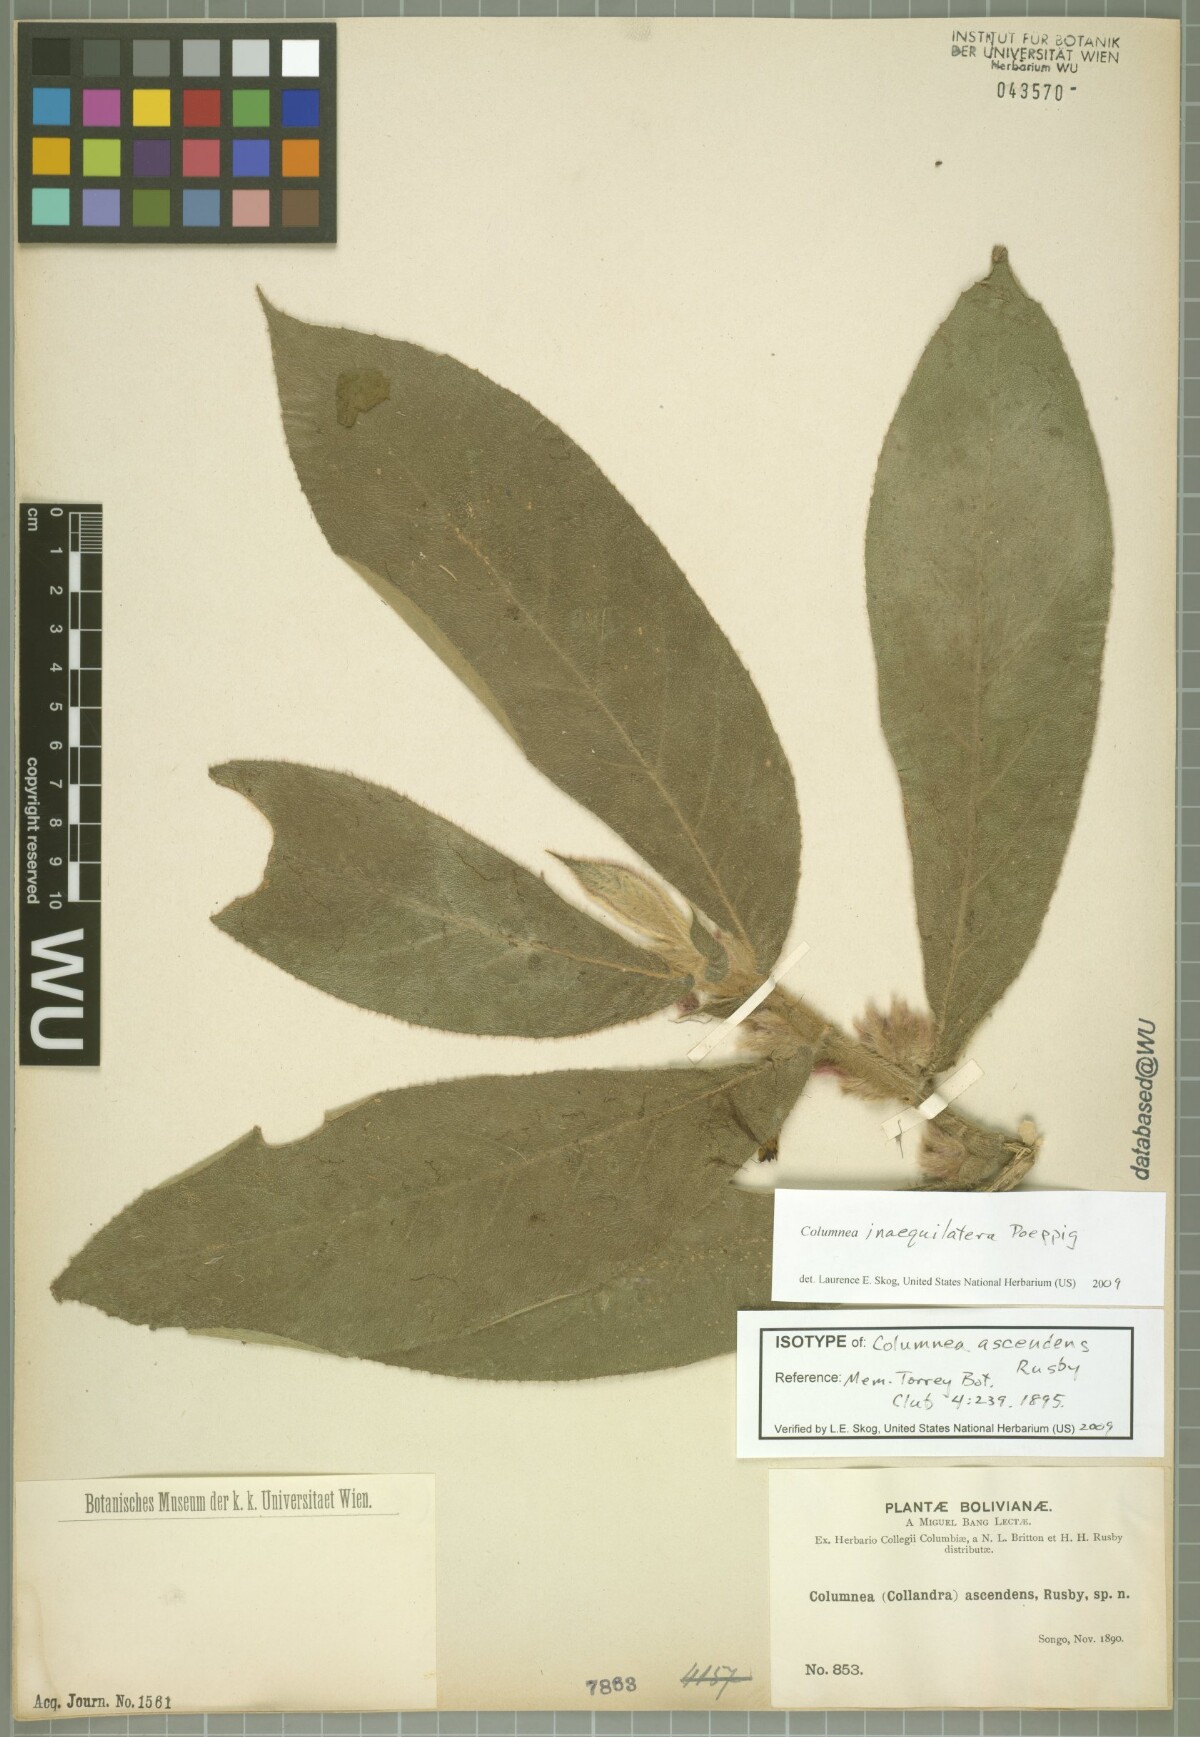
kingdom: Plantae
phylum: Tracheophyta
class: Magnoliopsida
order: Lamiales
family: Gesneriaceae
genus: Columnea
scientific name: Columnea inaequilatera
